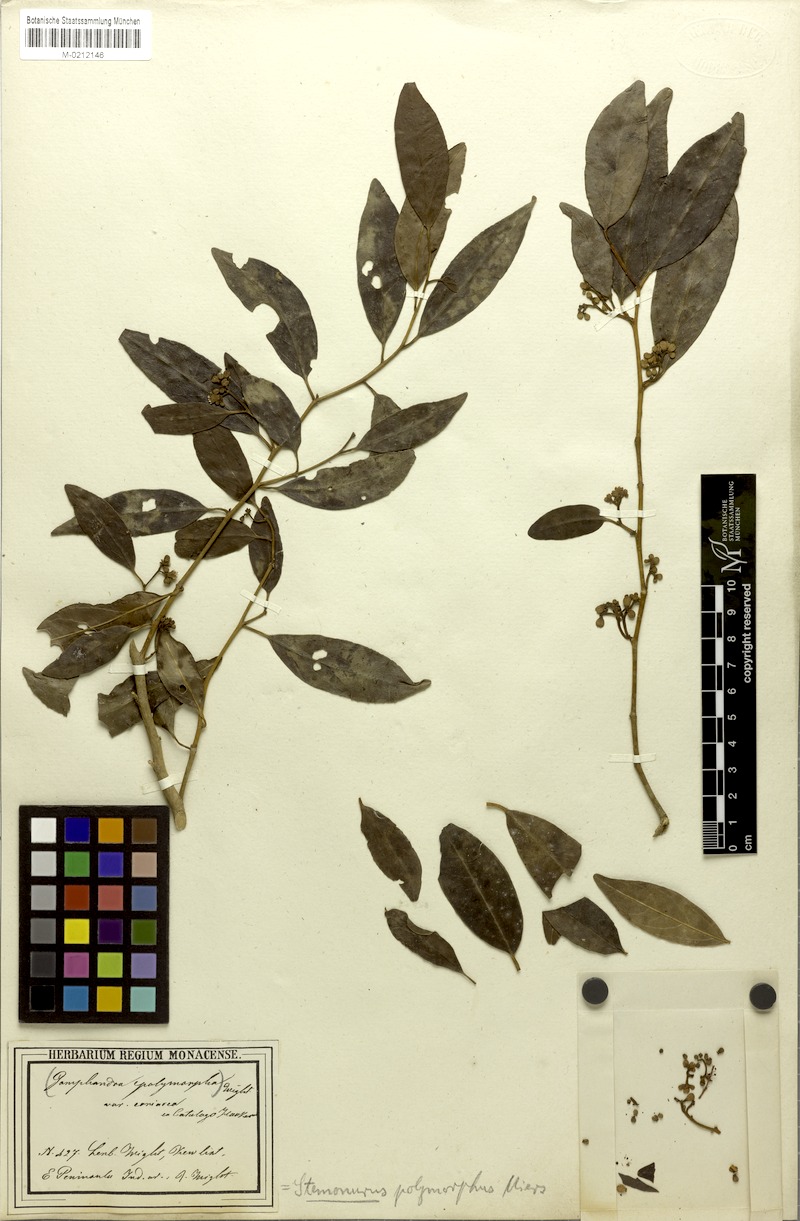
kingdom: Plantae
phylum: Tracheophyta
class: Magnoliopsida
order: Cardiopteridales
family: Stemonuraceae
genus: Gomphandra
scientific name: Gomphandra tetrandra
